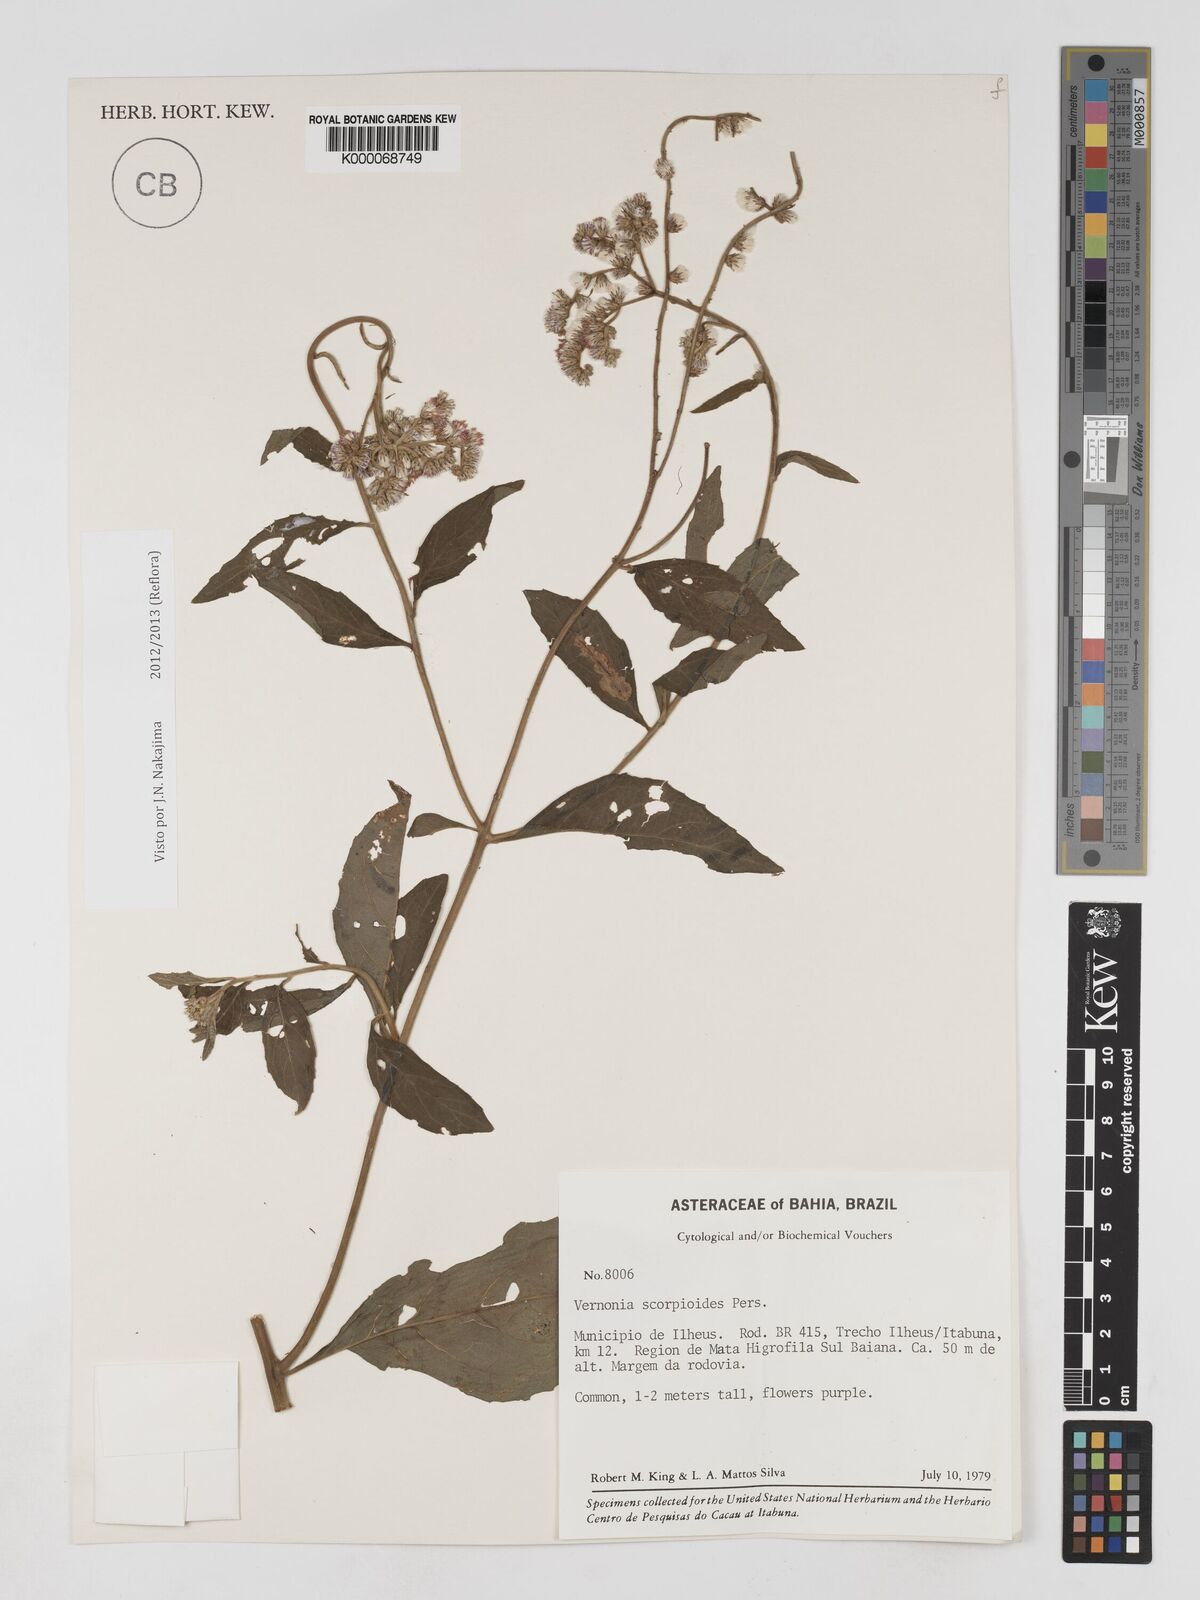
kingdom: Plantae
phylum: Tracheophyta
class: Magnoliopsida
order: Asterales
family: Asteraceae
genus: Cyrtocymura
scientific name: Cyrtocymura scorpioides
